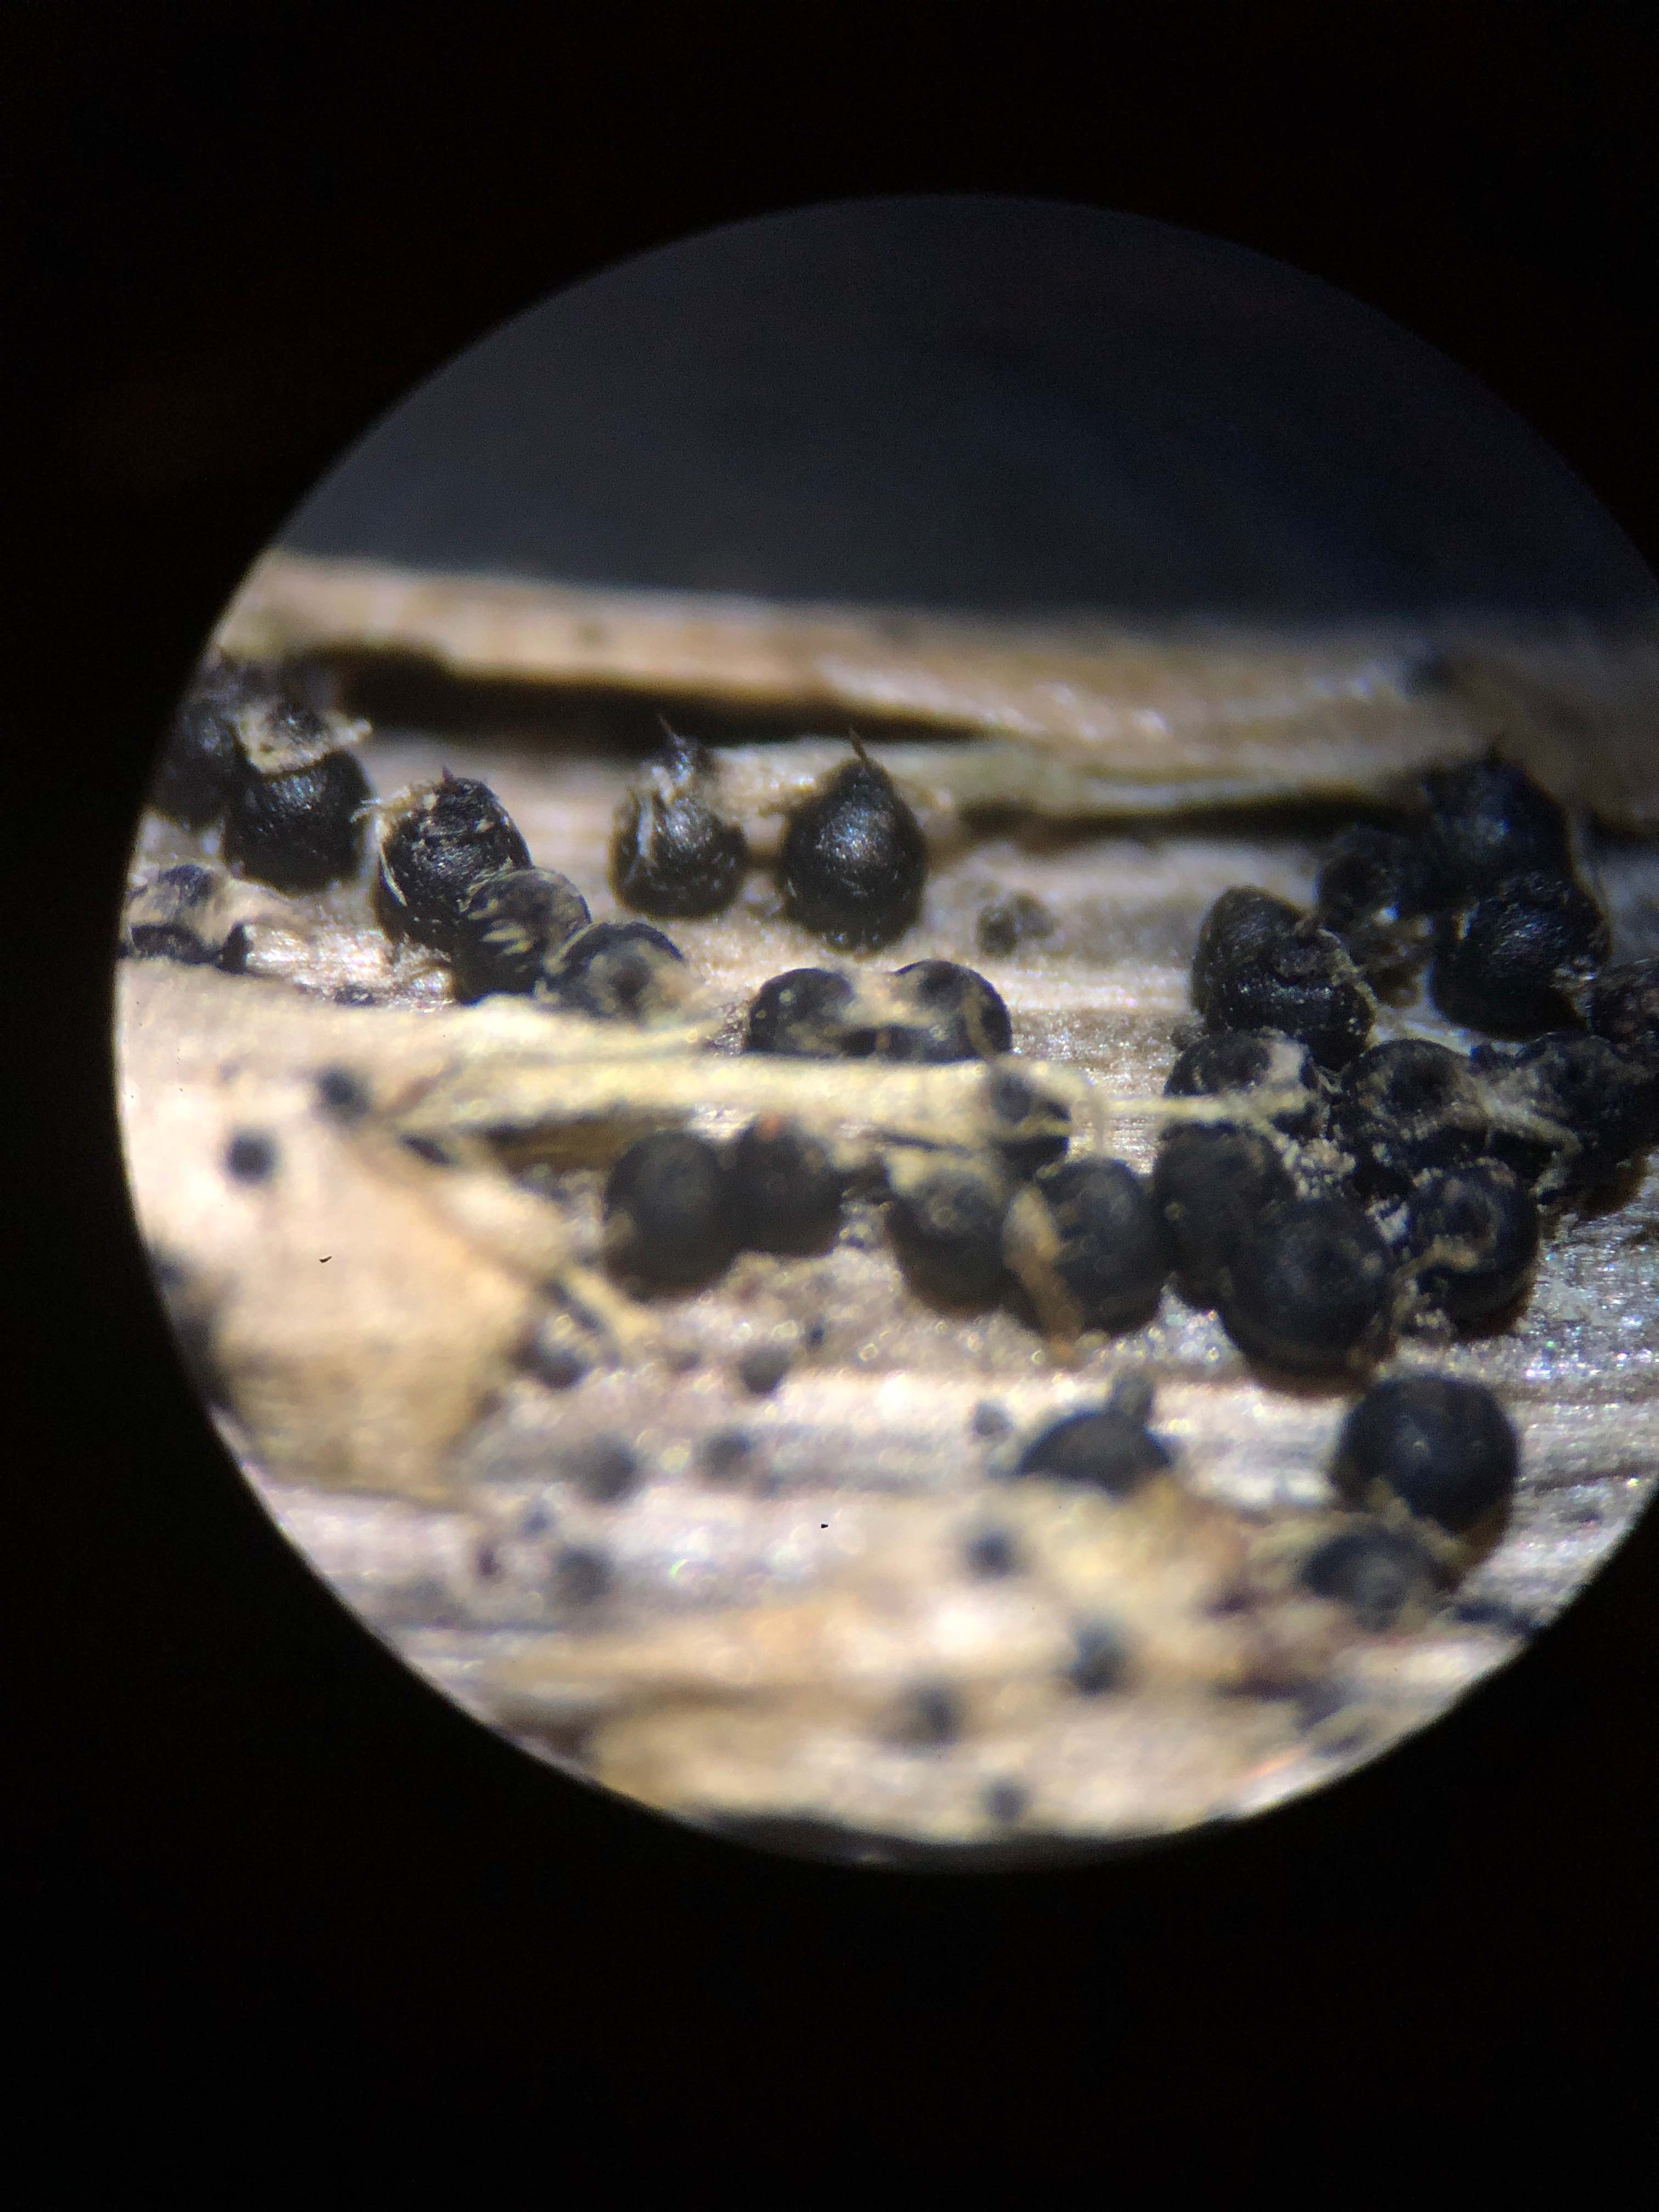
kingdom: Fungi
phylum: Ascomycota
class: Dothideomycetes
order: Pleosporales
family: Leptosphaeriaceae
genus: Leptosphaeria
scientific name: Leptosphaeria acuta
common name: spids kulkegle
